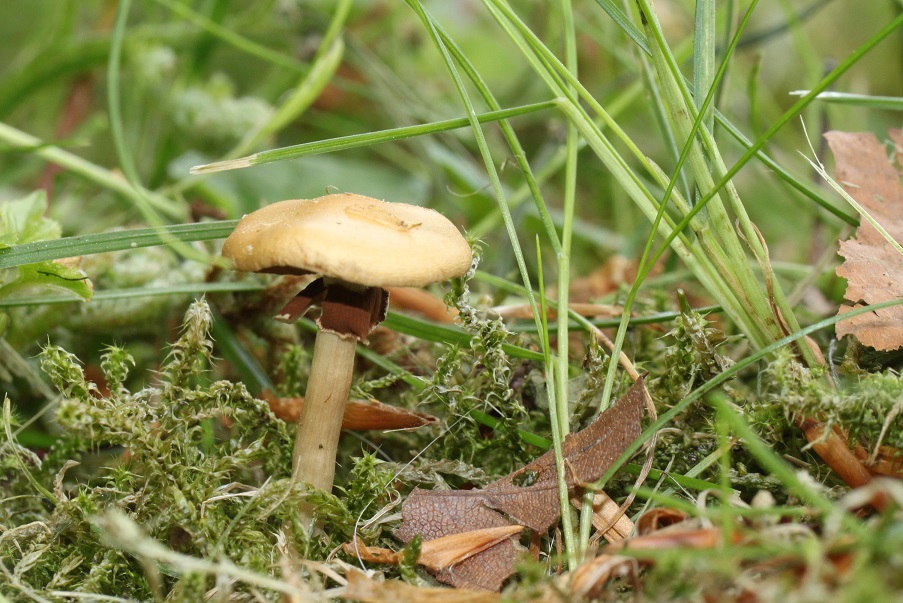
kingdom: Fungi
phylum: Basidiomycota
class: Agaricomycetes
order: Agaricales
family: Strophariaceae
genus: Agrocybe
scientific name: Agrocybe praecox
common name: tidlig agerhat
